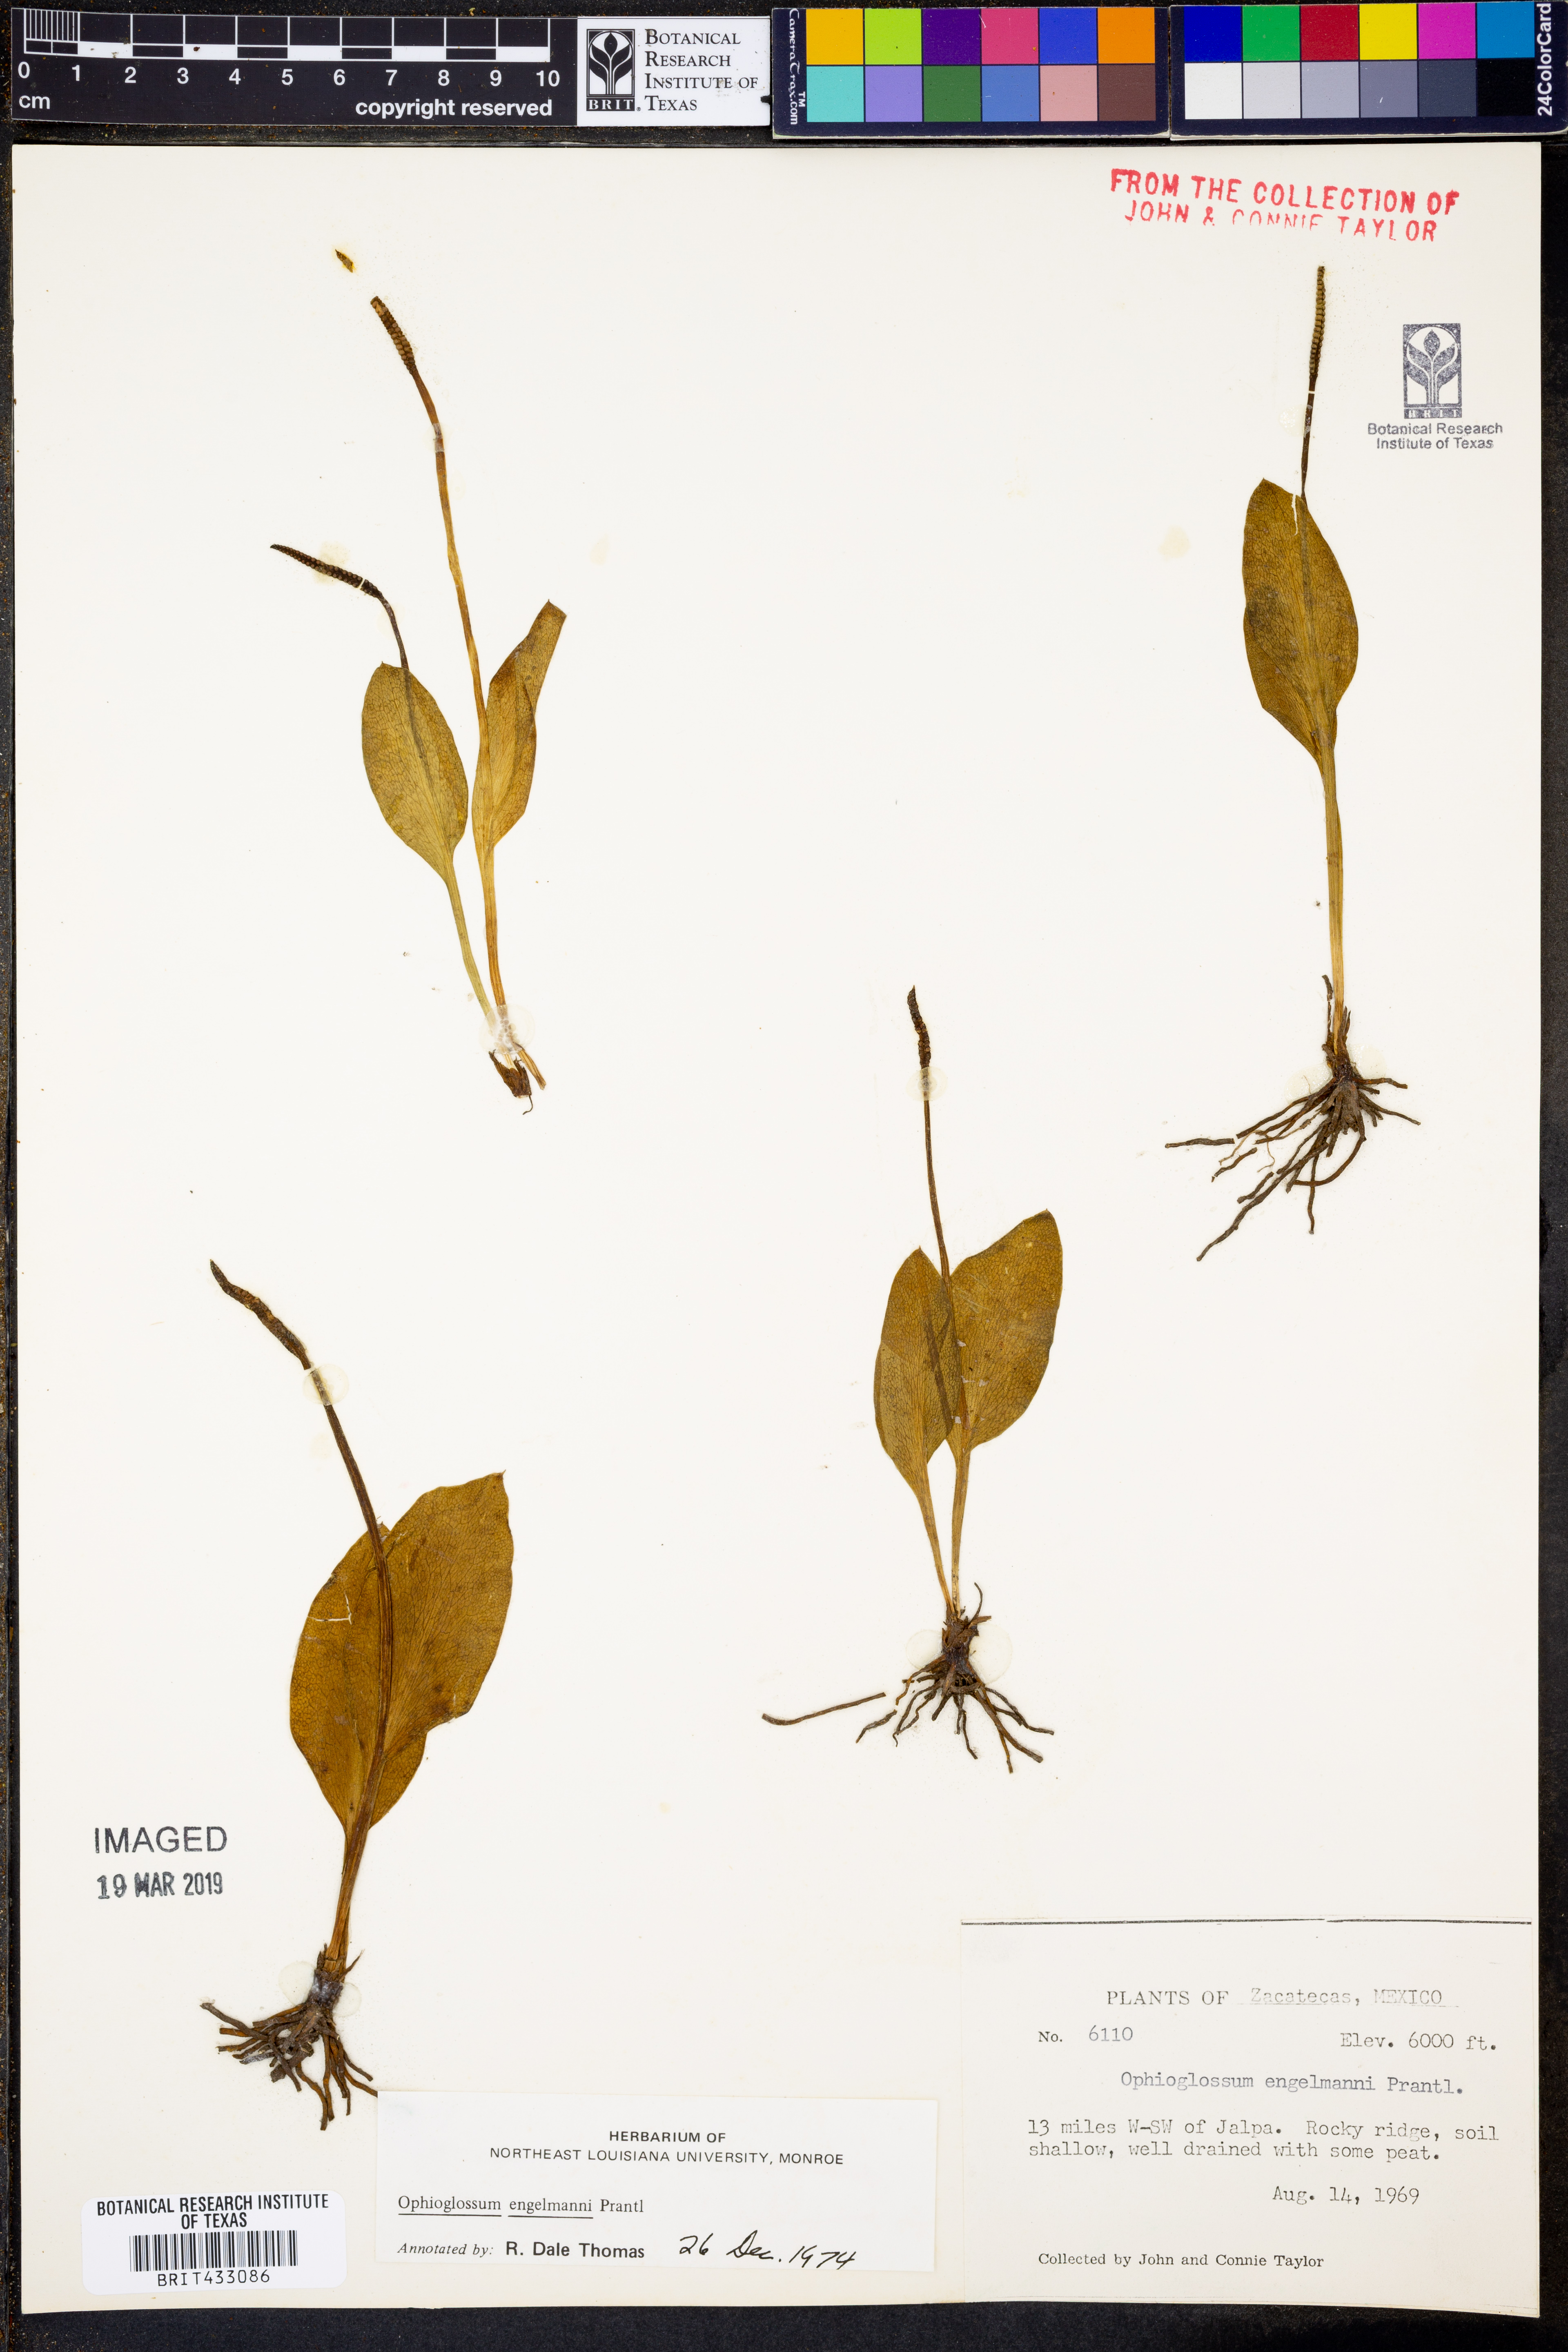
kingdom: Plantae
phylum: Tracheophyta
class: Polypodiopsida
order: Ophioglossales
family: Ophioglossaceae
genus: Ophioglossum
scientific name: Ophioglossum engelmannii
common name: Limestone adder's-tongue
